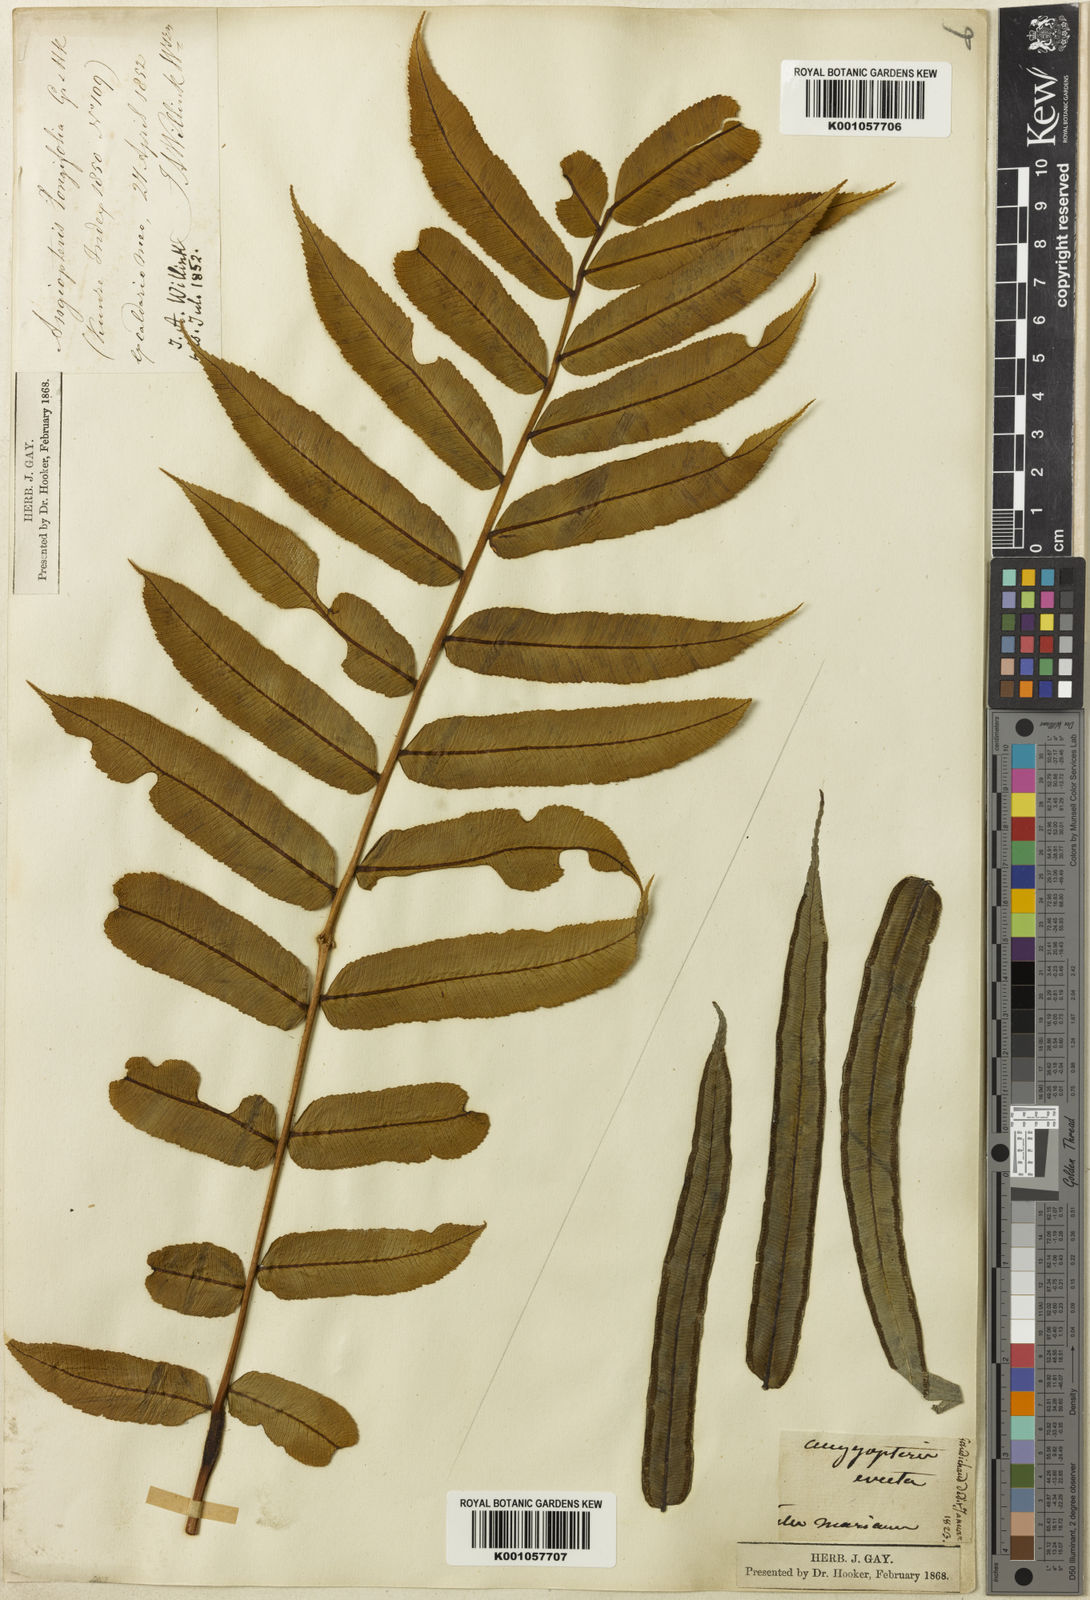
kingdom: Plantae
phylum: Tracheophyta
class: Polypodiopsida
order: Marattiales
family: Marattiaceae
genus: Angiopteris
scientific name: Angiopteris pruinosa
